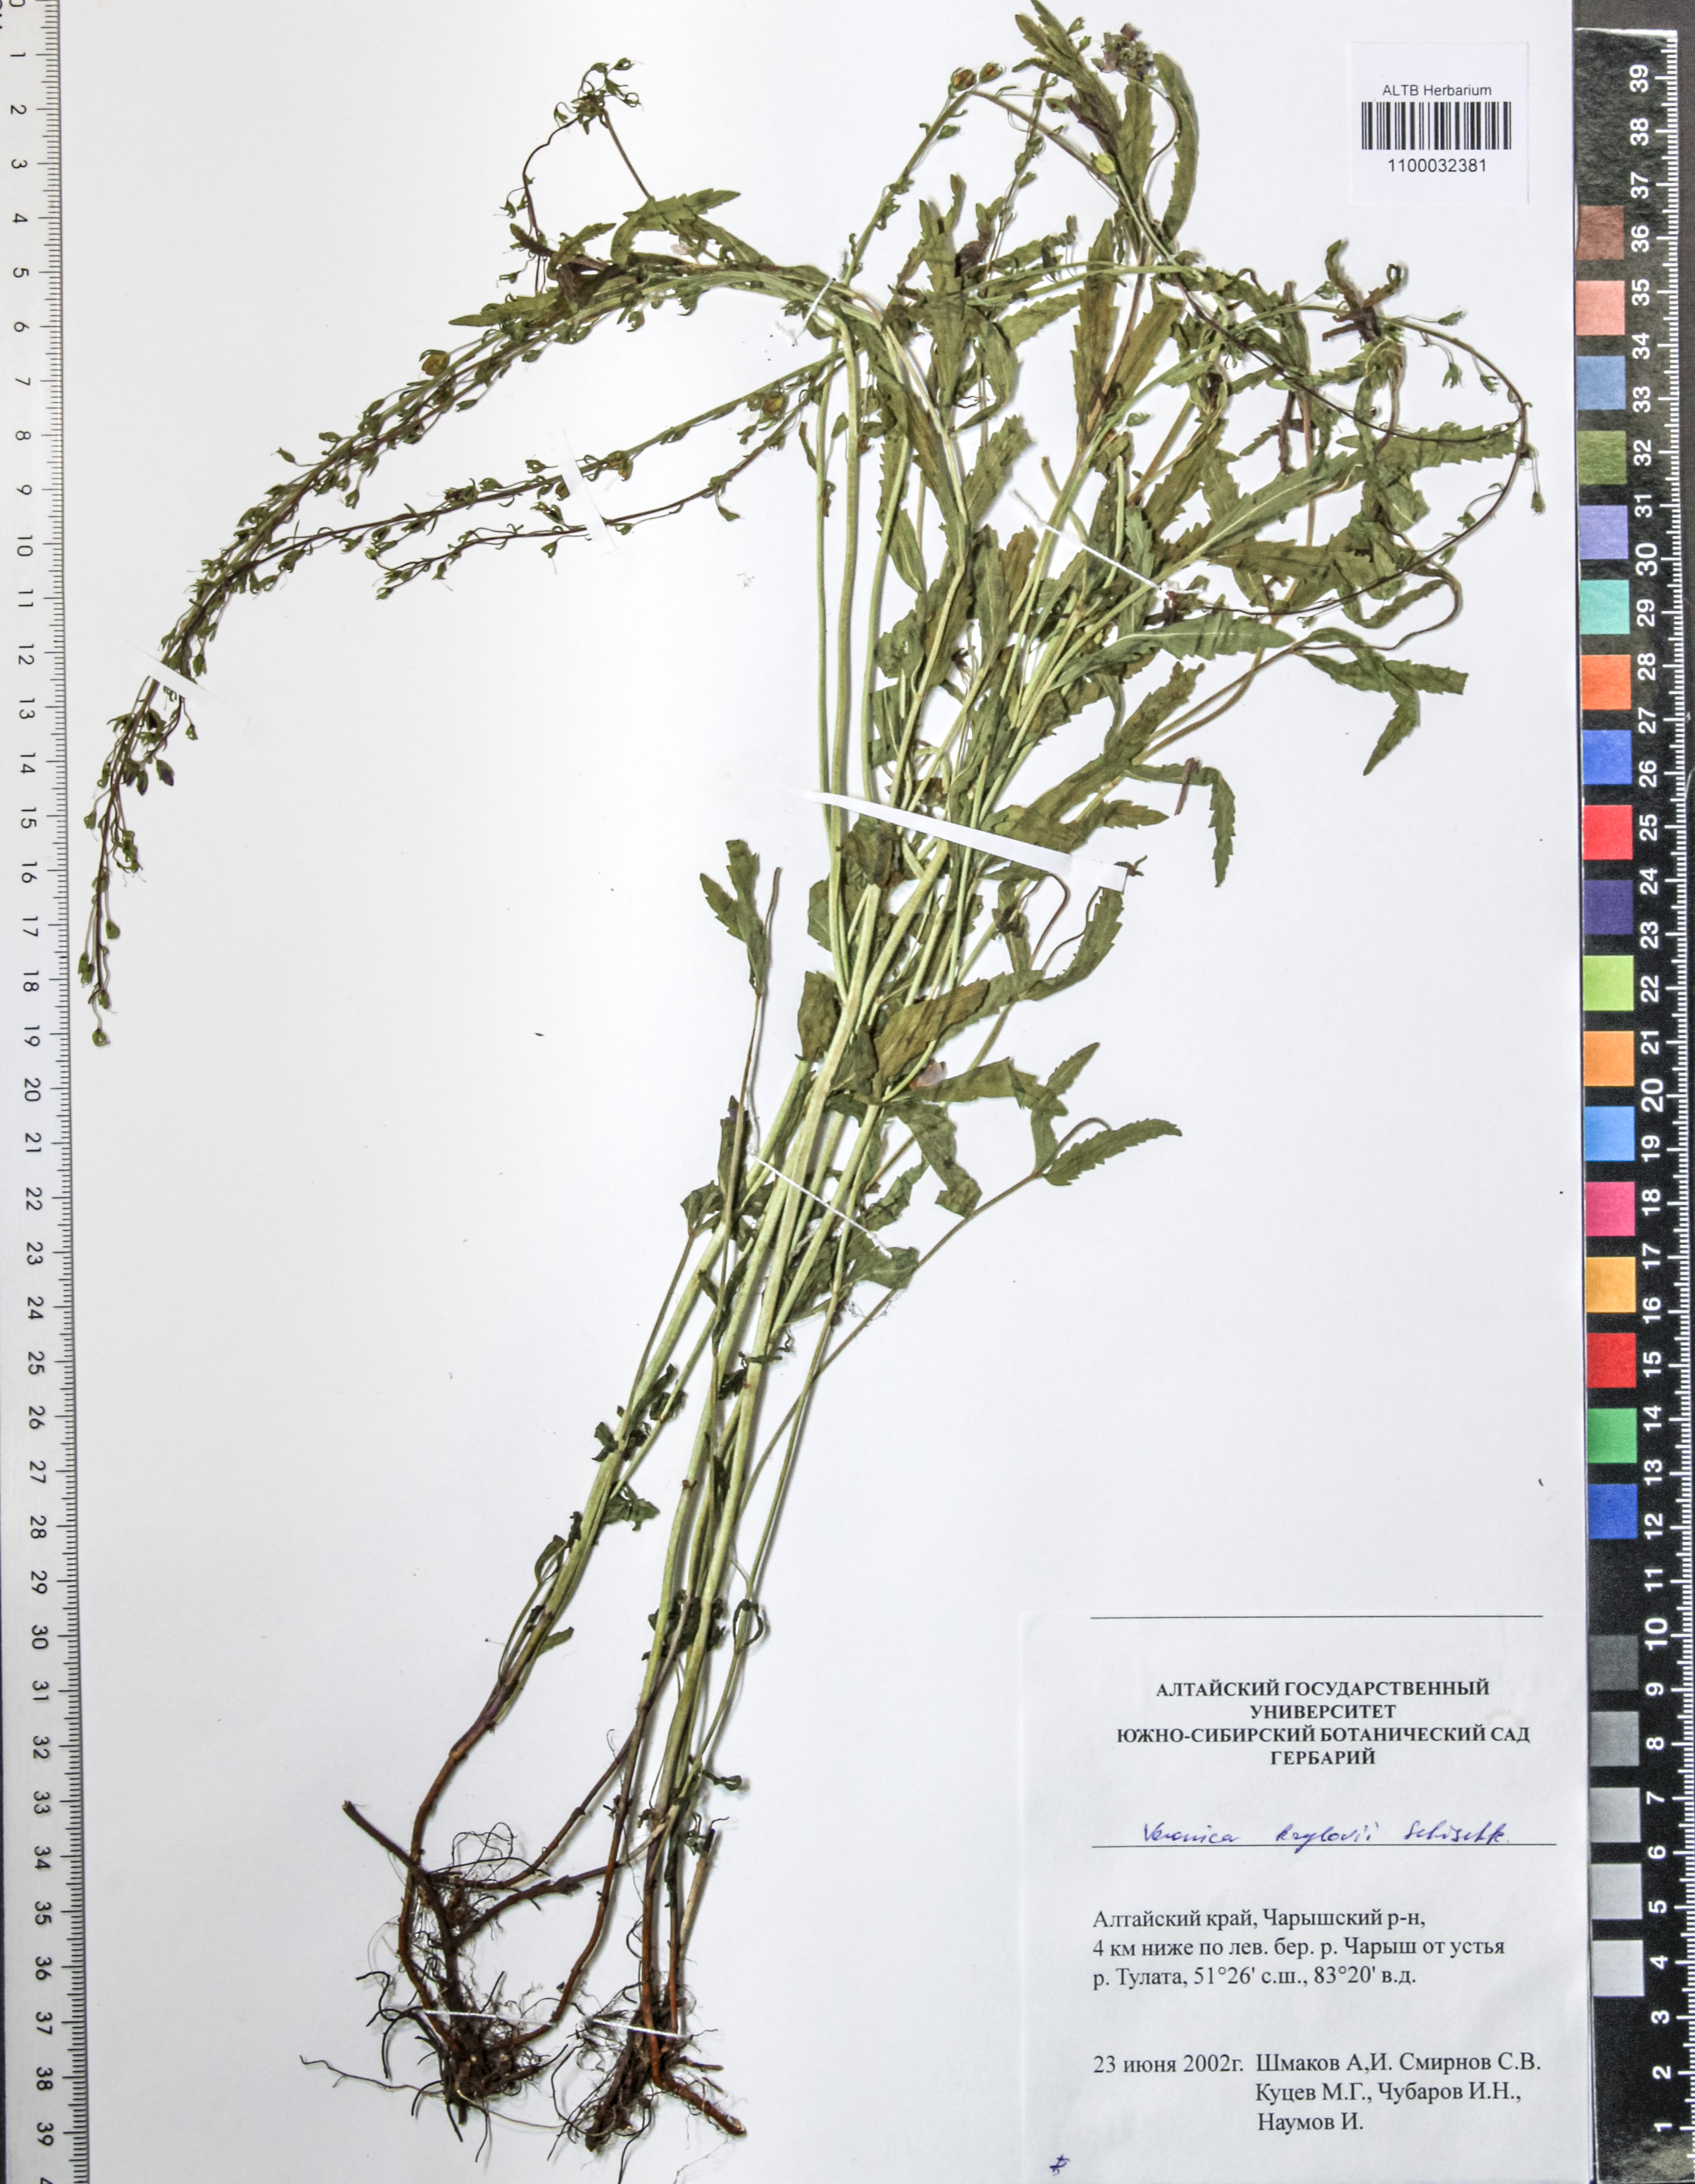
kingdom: Plantae
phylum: Tracheophyta
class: Magnoliopsida
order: Lamiales
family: Plantaginaceae
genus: Veronica
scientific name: Veronica krylovii
